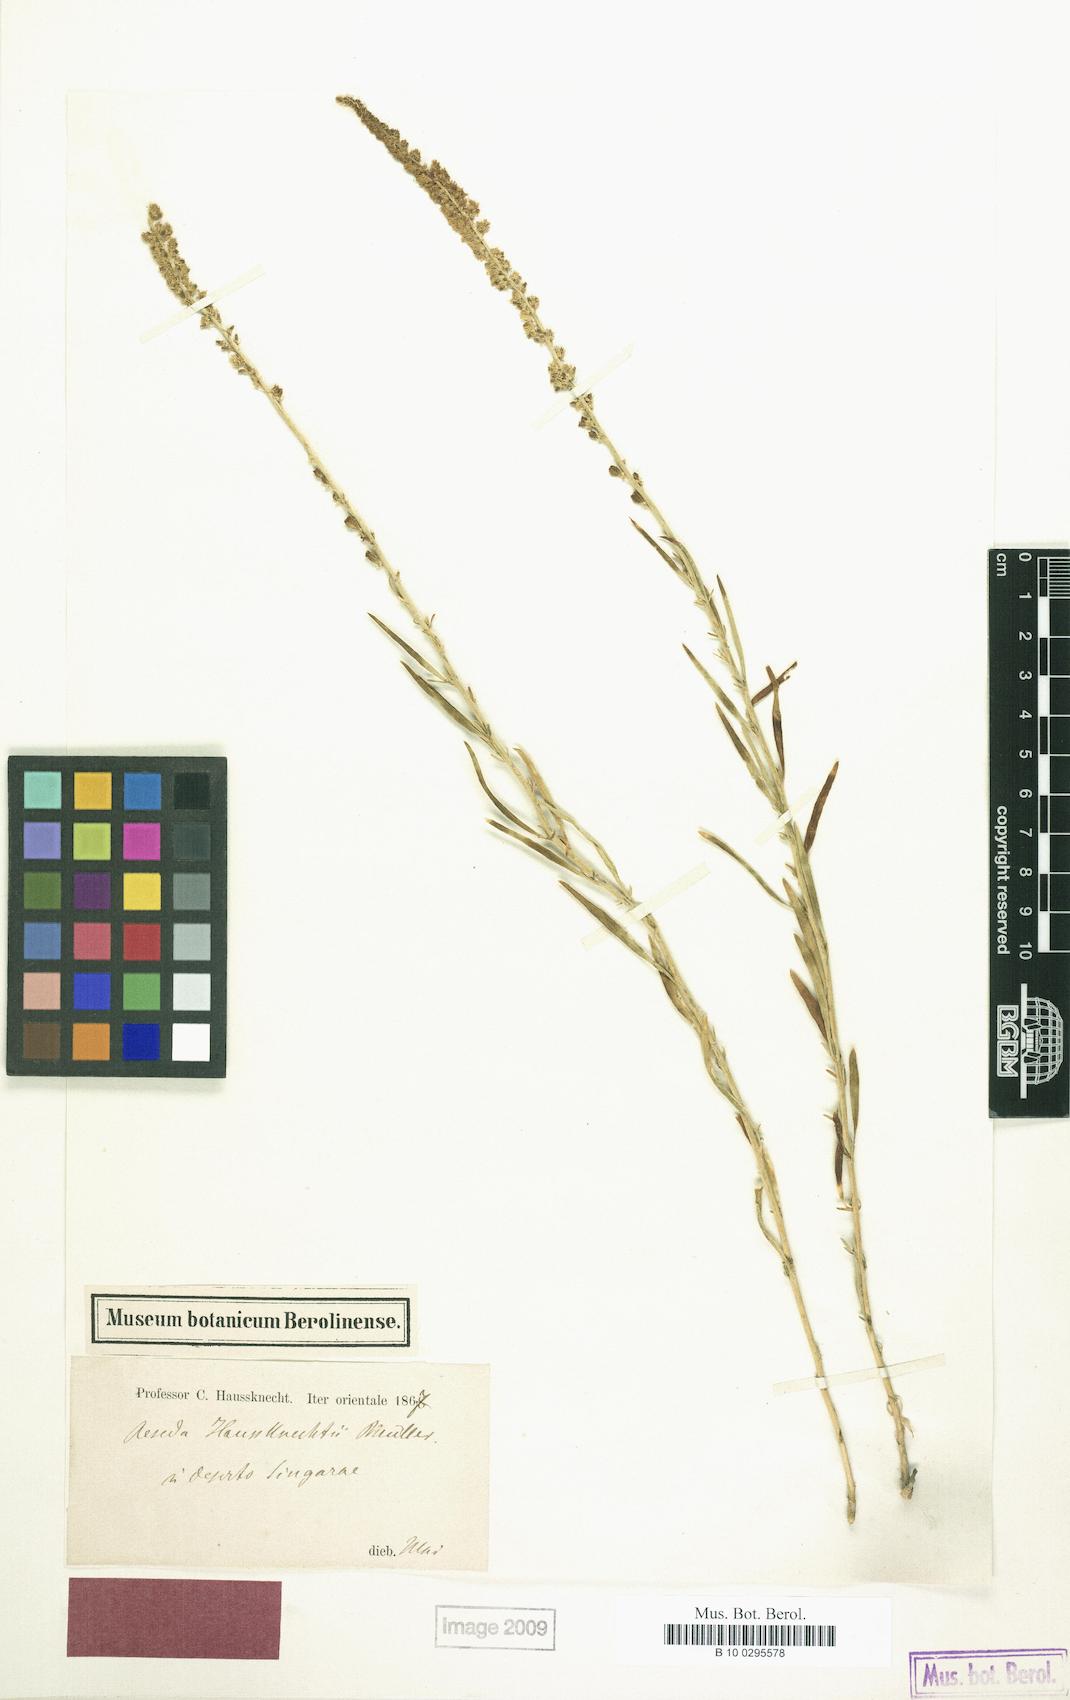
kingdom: Plantae
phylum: Tracheophyta
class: Magnoliopsida
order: Brassicales
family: Resedaceae
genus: Reseda
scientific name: Reseda haussknechtii
